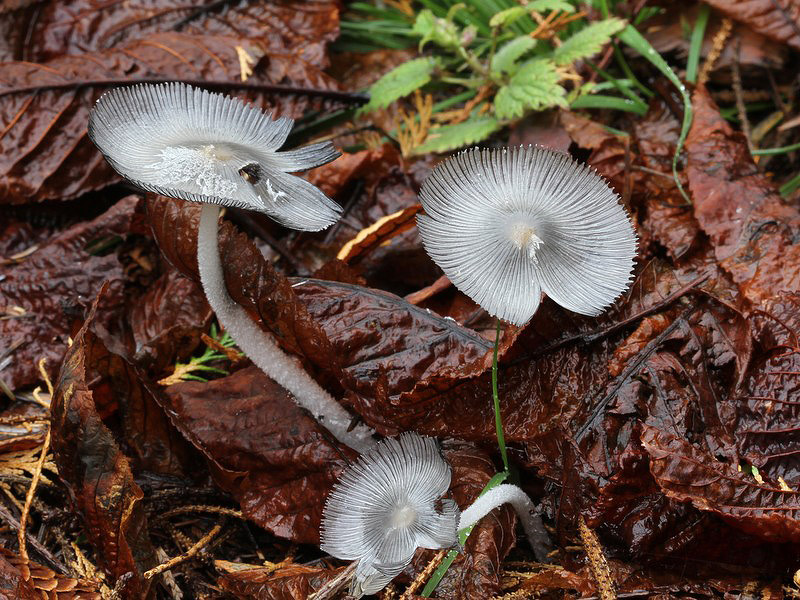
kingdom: Fungi
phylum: Basidiomycota
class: Agaricomycetes
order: Agaricales
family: Psathyrellaceae
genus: Coprinopsis
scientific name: Coprinopsis lagopus
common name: dunstokket blækhat
